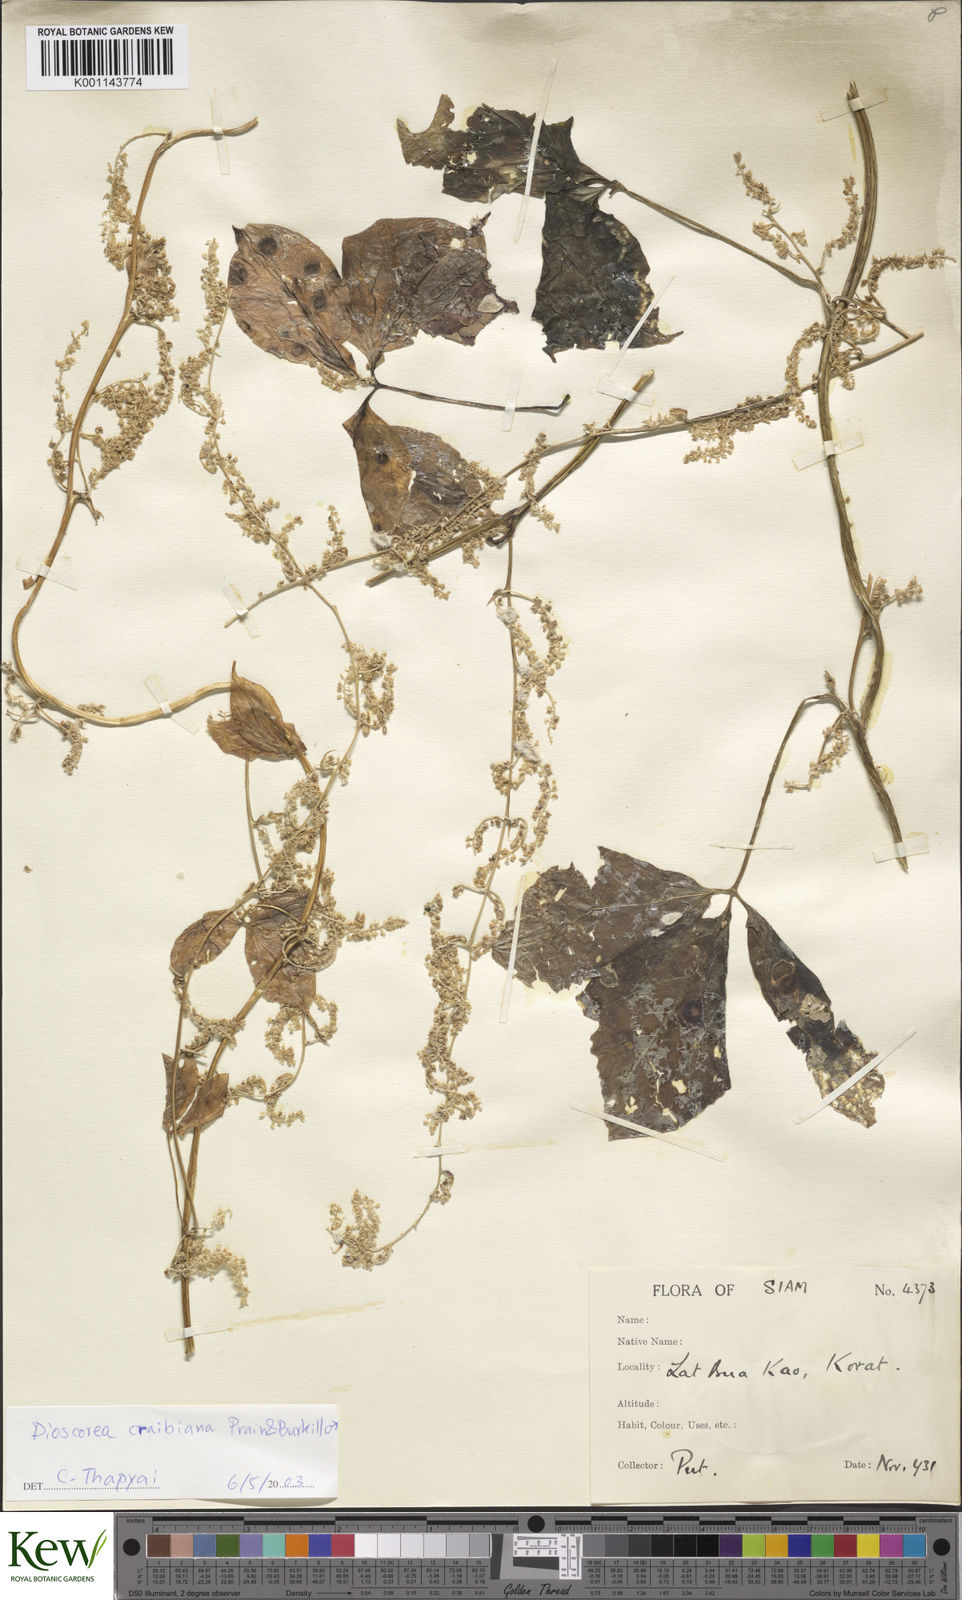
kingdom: Plantae
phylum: Tracheophyta
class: Liliopsida
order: Dioscoreales
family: Dioscoreaceae
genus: Dioscorea
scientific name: Dioscorea craibiana
